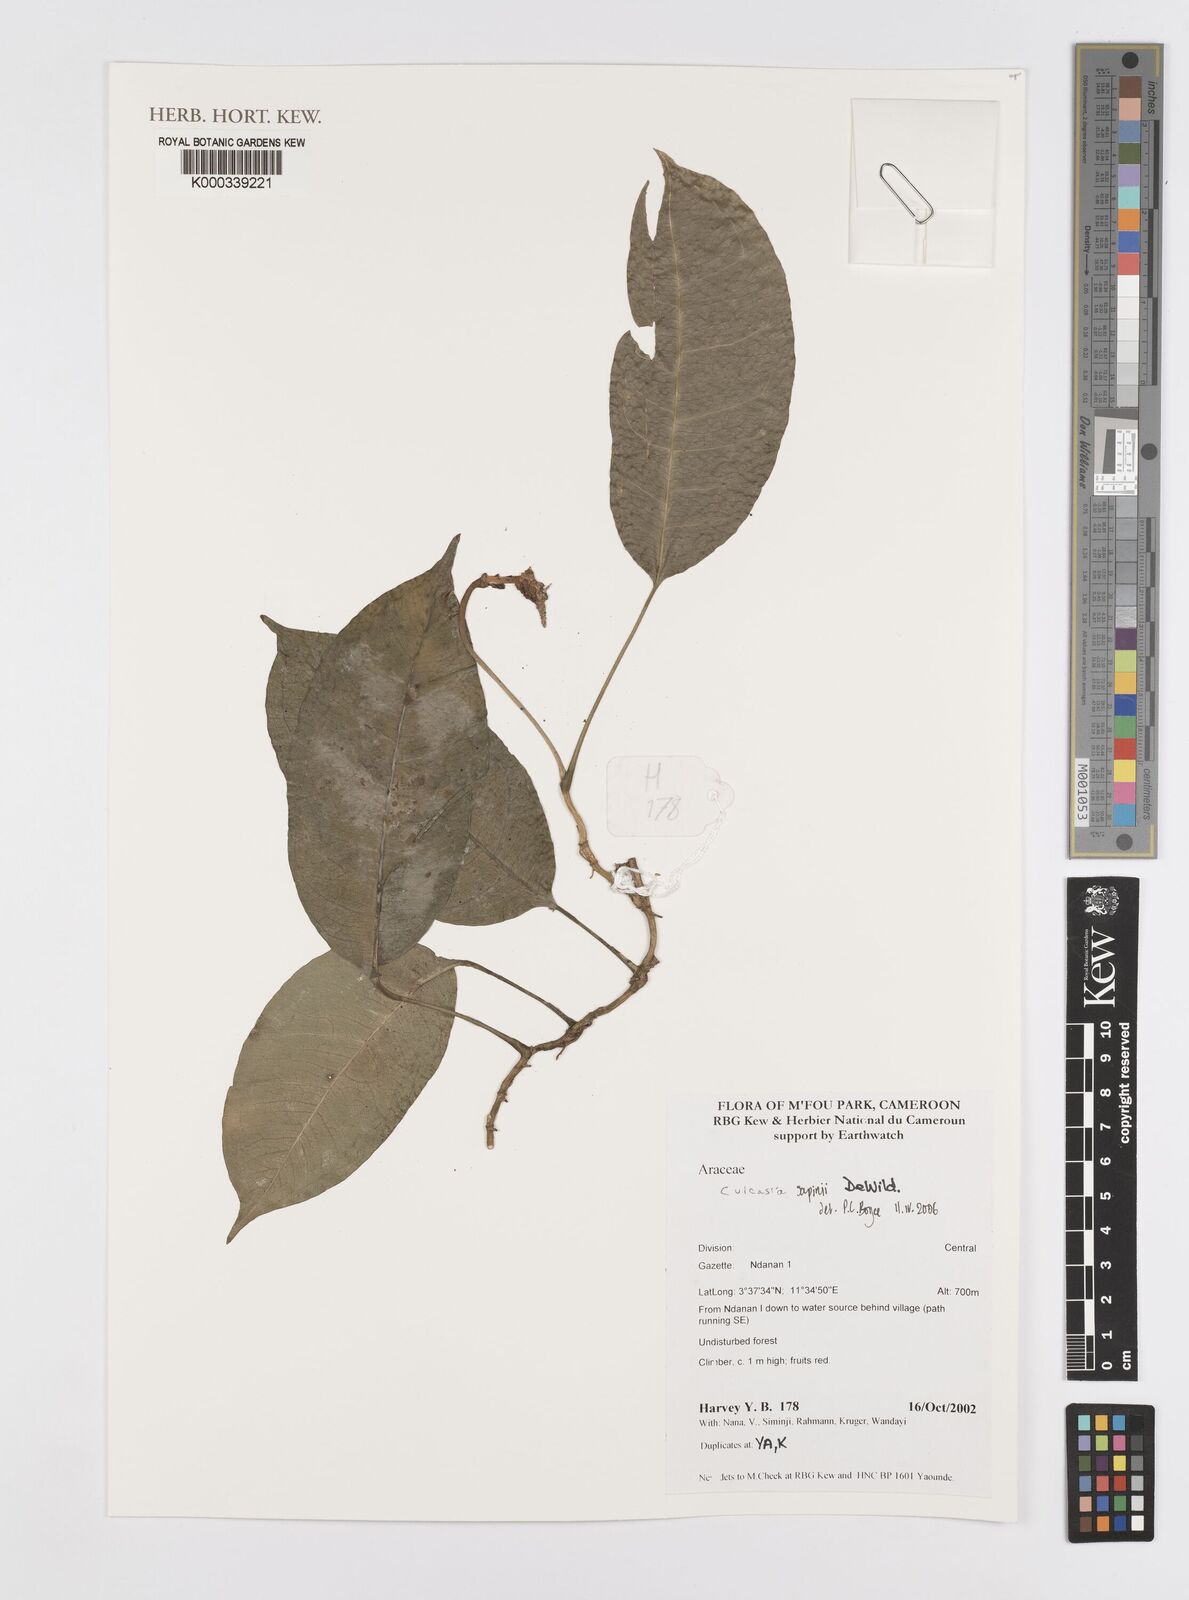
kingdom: Plantae
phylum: Tracheophyta
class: Liliopsida
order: Alismatales
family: Araceae
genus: Culcasia
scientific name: Culcasia seretii
